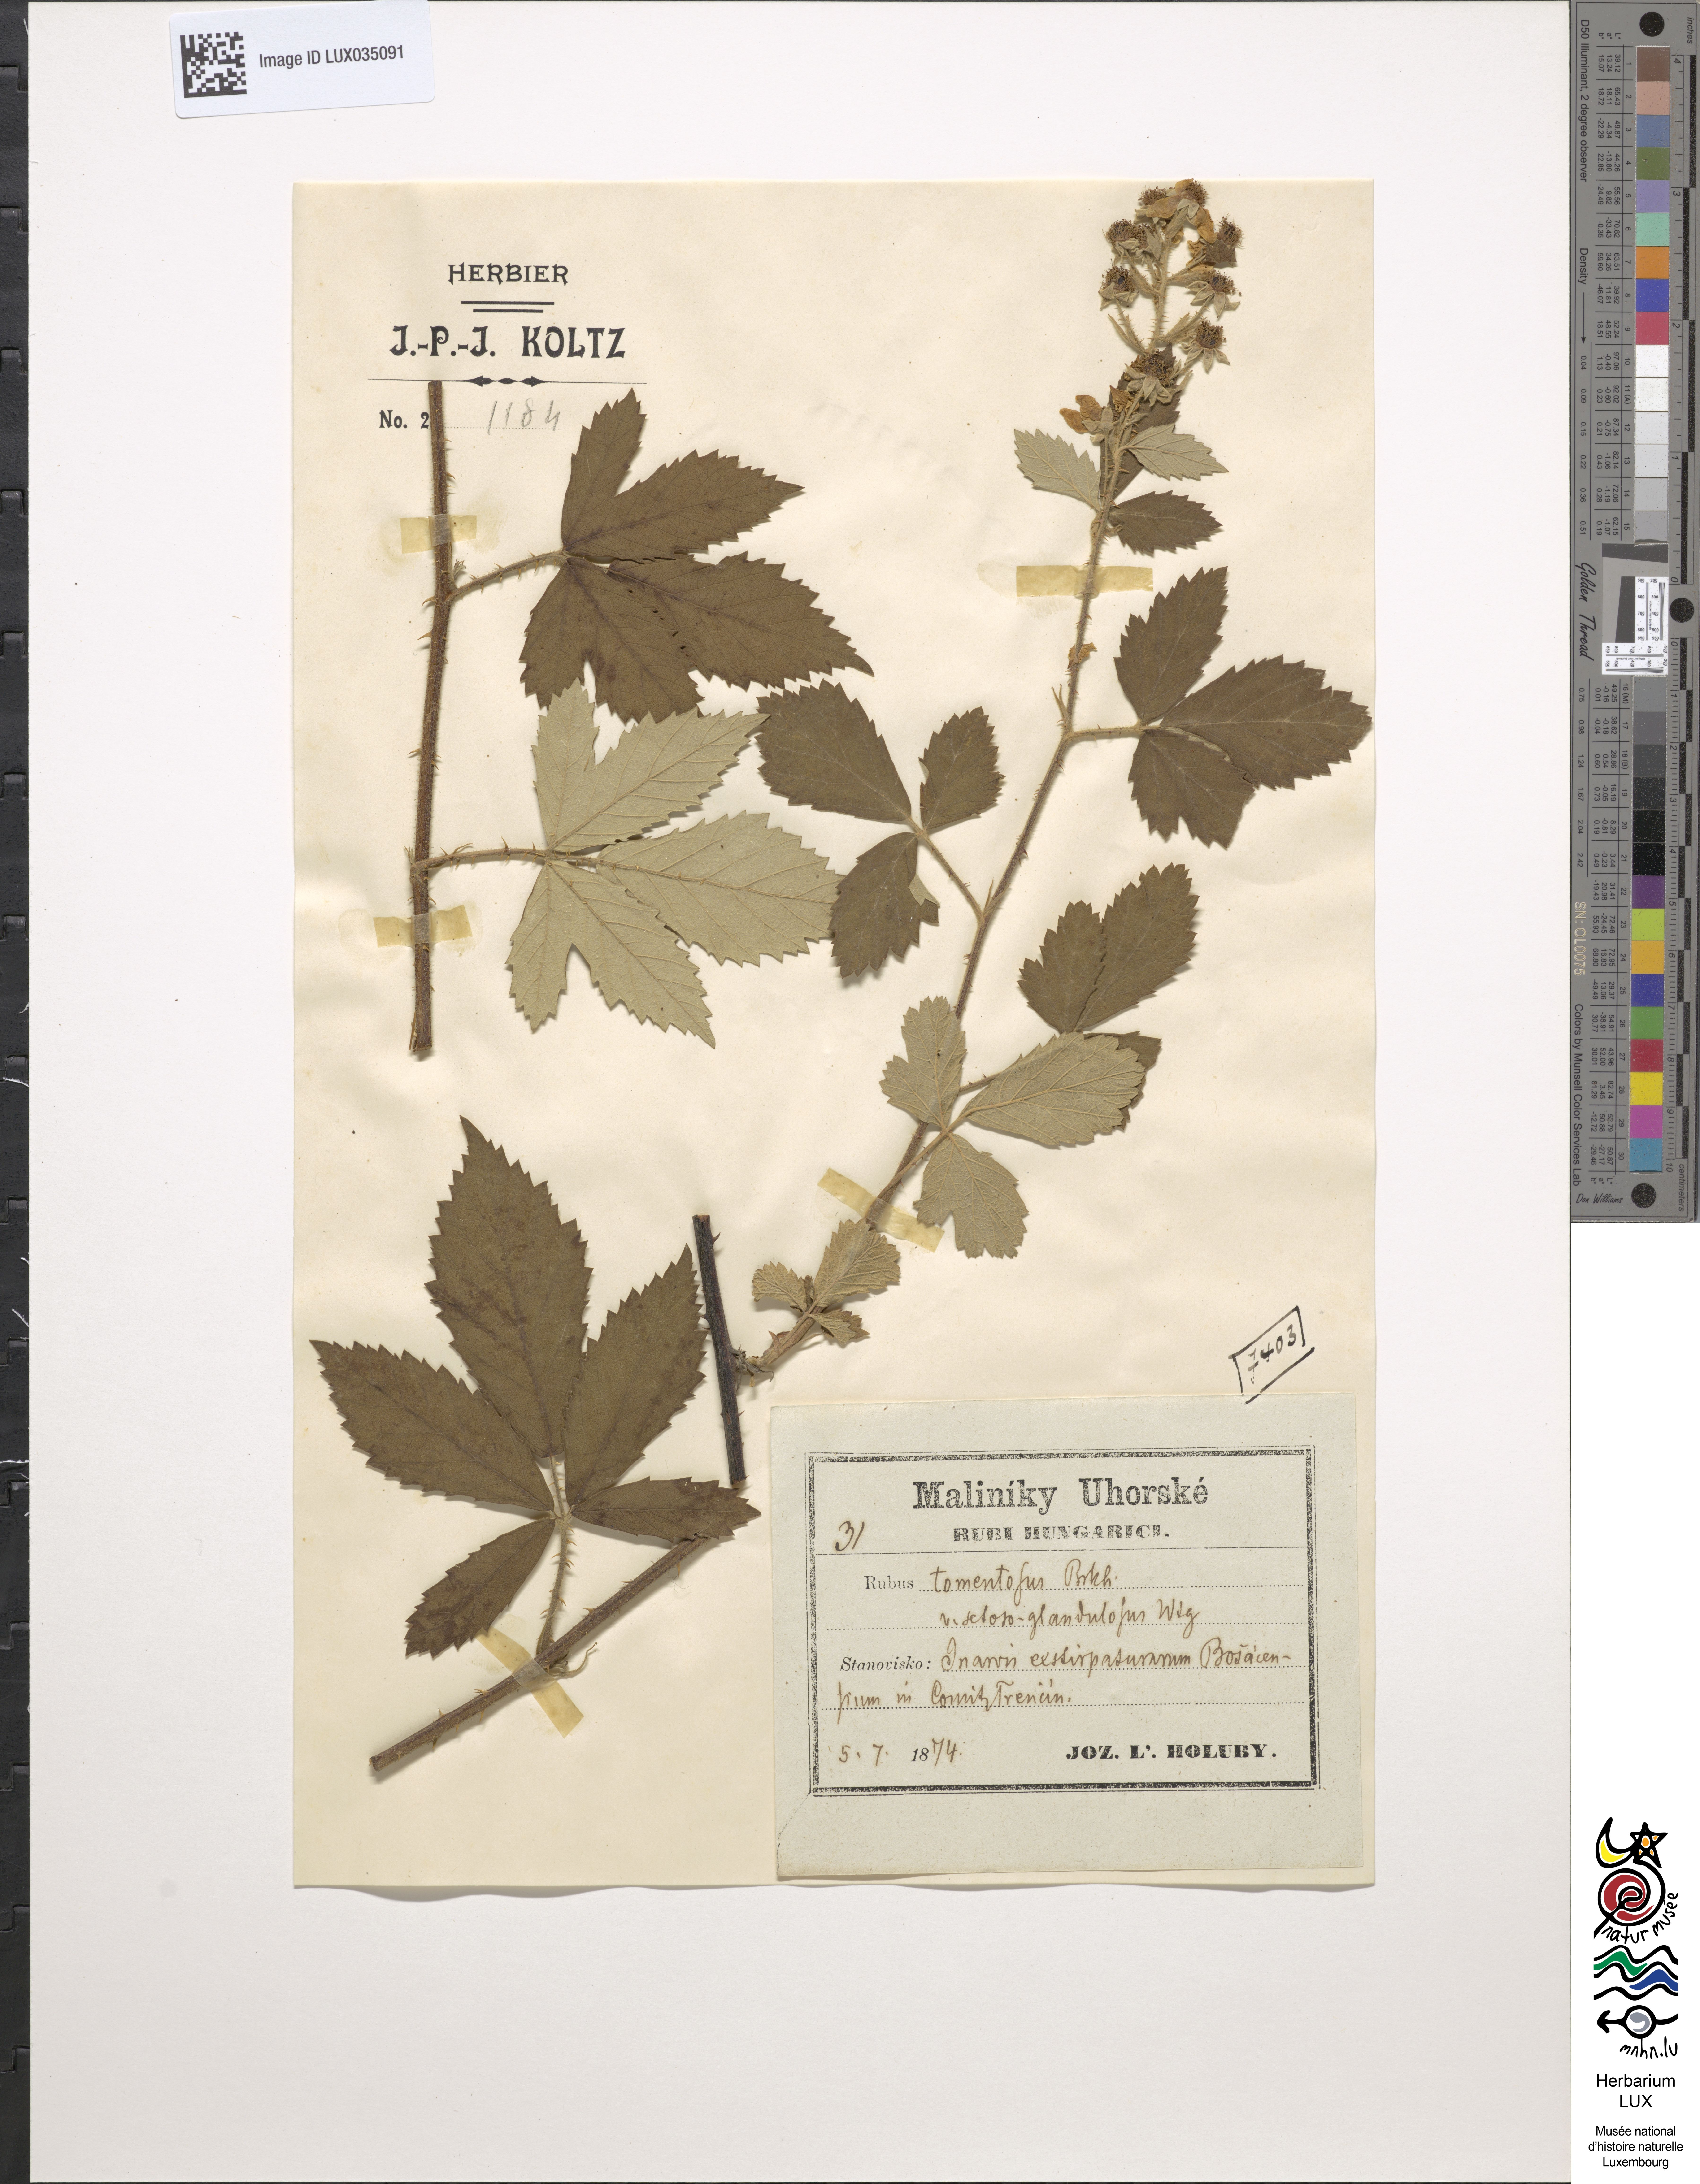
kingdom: Plantae
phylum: Tracheophyta
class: Magnoliopsida
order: Rosales
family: Rosaceae
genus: Rubus
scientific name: Rubus aetnicus
